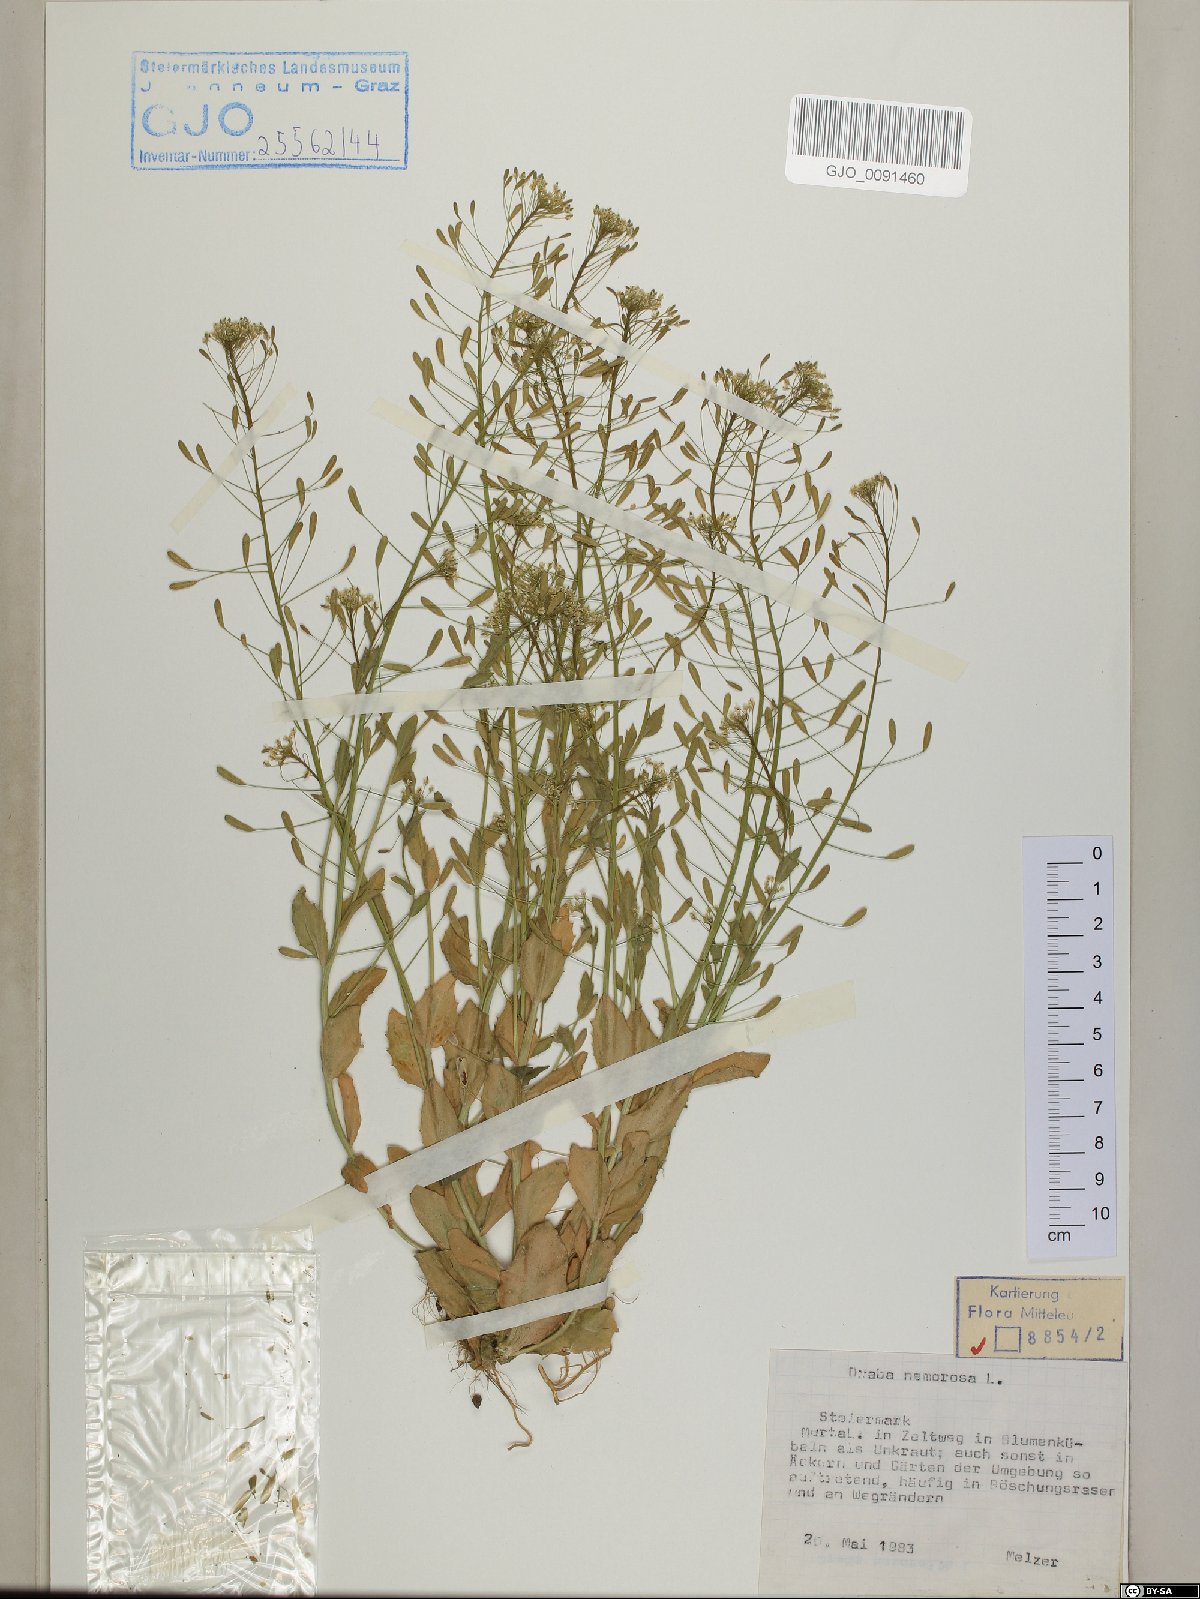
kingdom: Plantae
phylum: Tracheophyta
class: Magnoliopsida
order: Brassicales
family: Brassicaceae
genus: Draba
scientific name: Draba nemorosa
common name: Wood whitlow-grass
